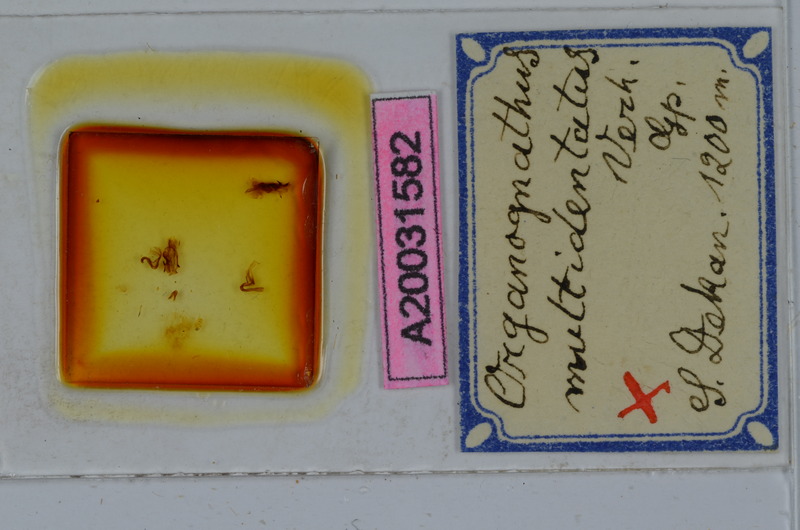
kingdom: Animalia
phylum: Arthropoda
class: Diplopoda
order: Spirostreptida
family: Harpagophoridae
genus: Organognathus
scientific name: Organognathus multidentatus
